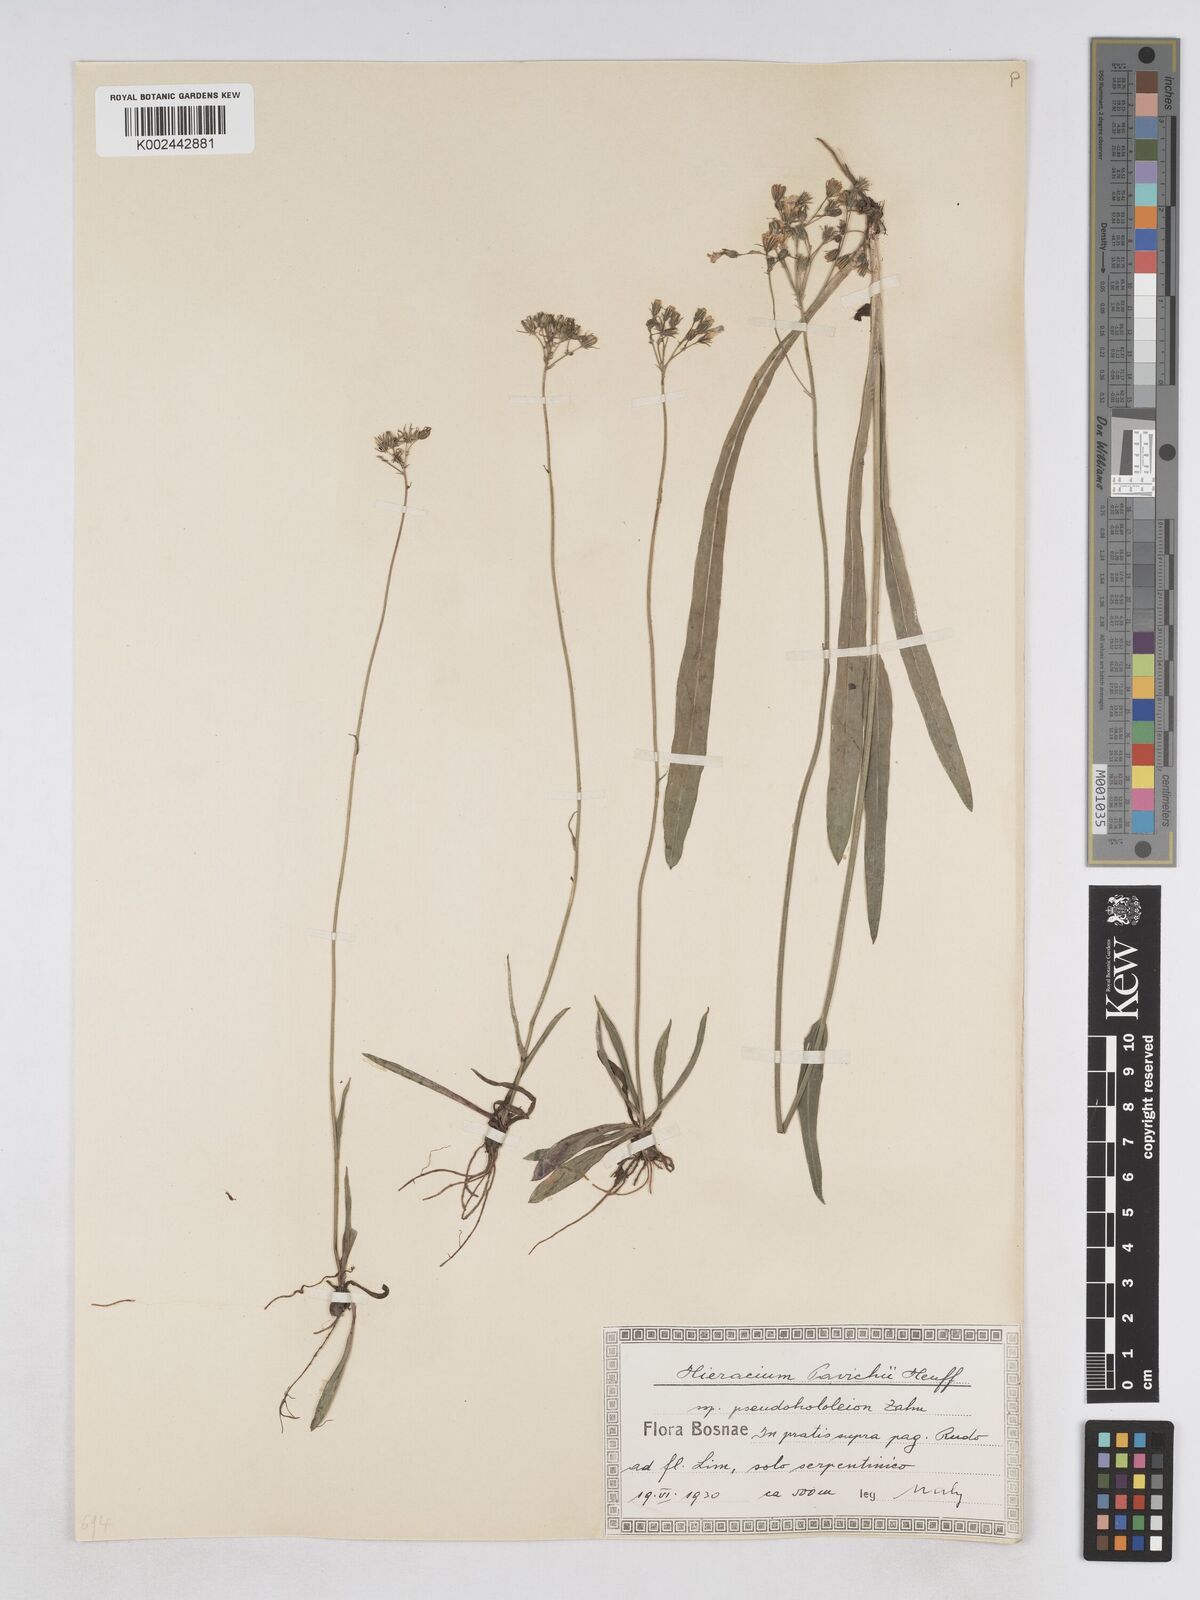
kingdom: Plantae
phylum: Tracheophyta
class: Magnoliopsida
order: Asterales
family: Asteraceae
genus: Pilosella
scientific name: Pilosella pavichii
